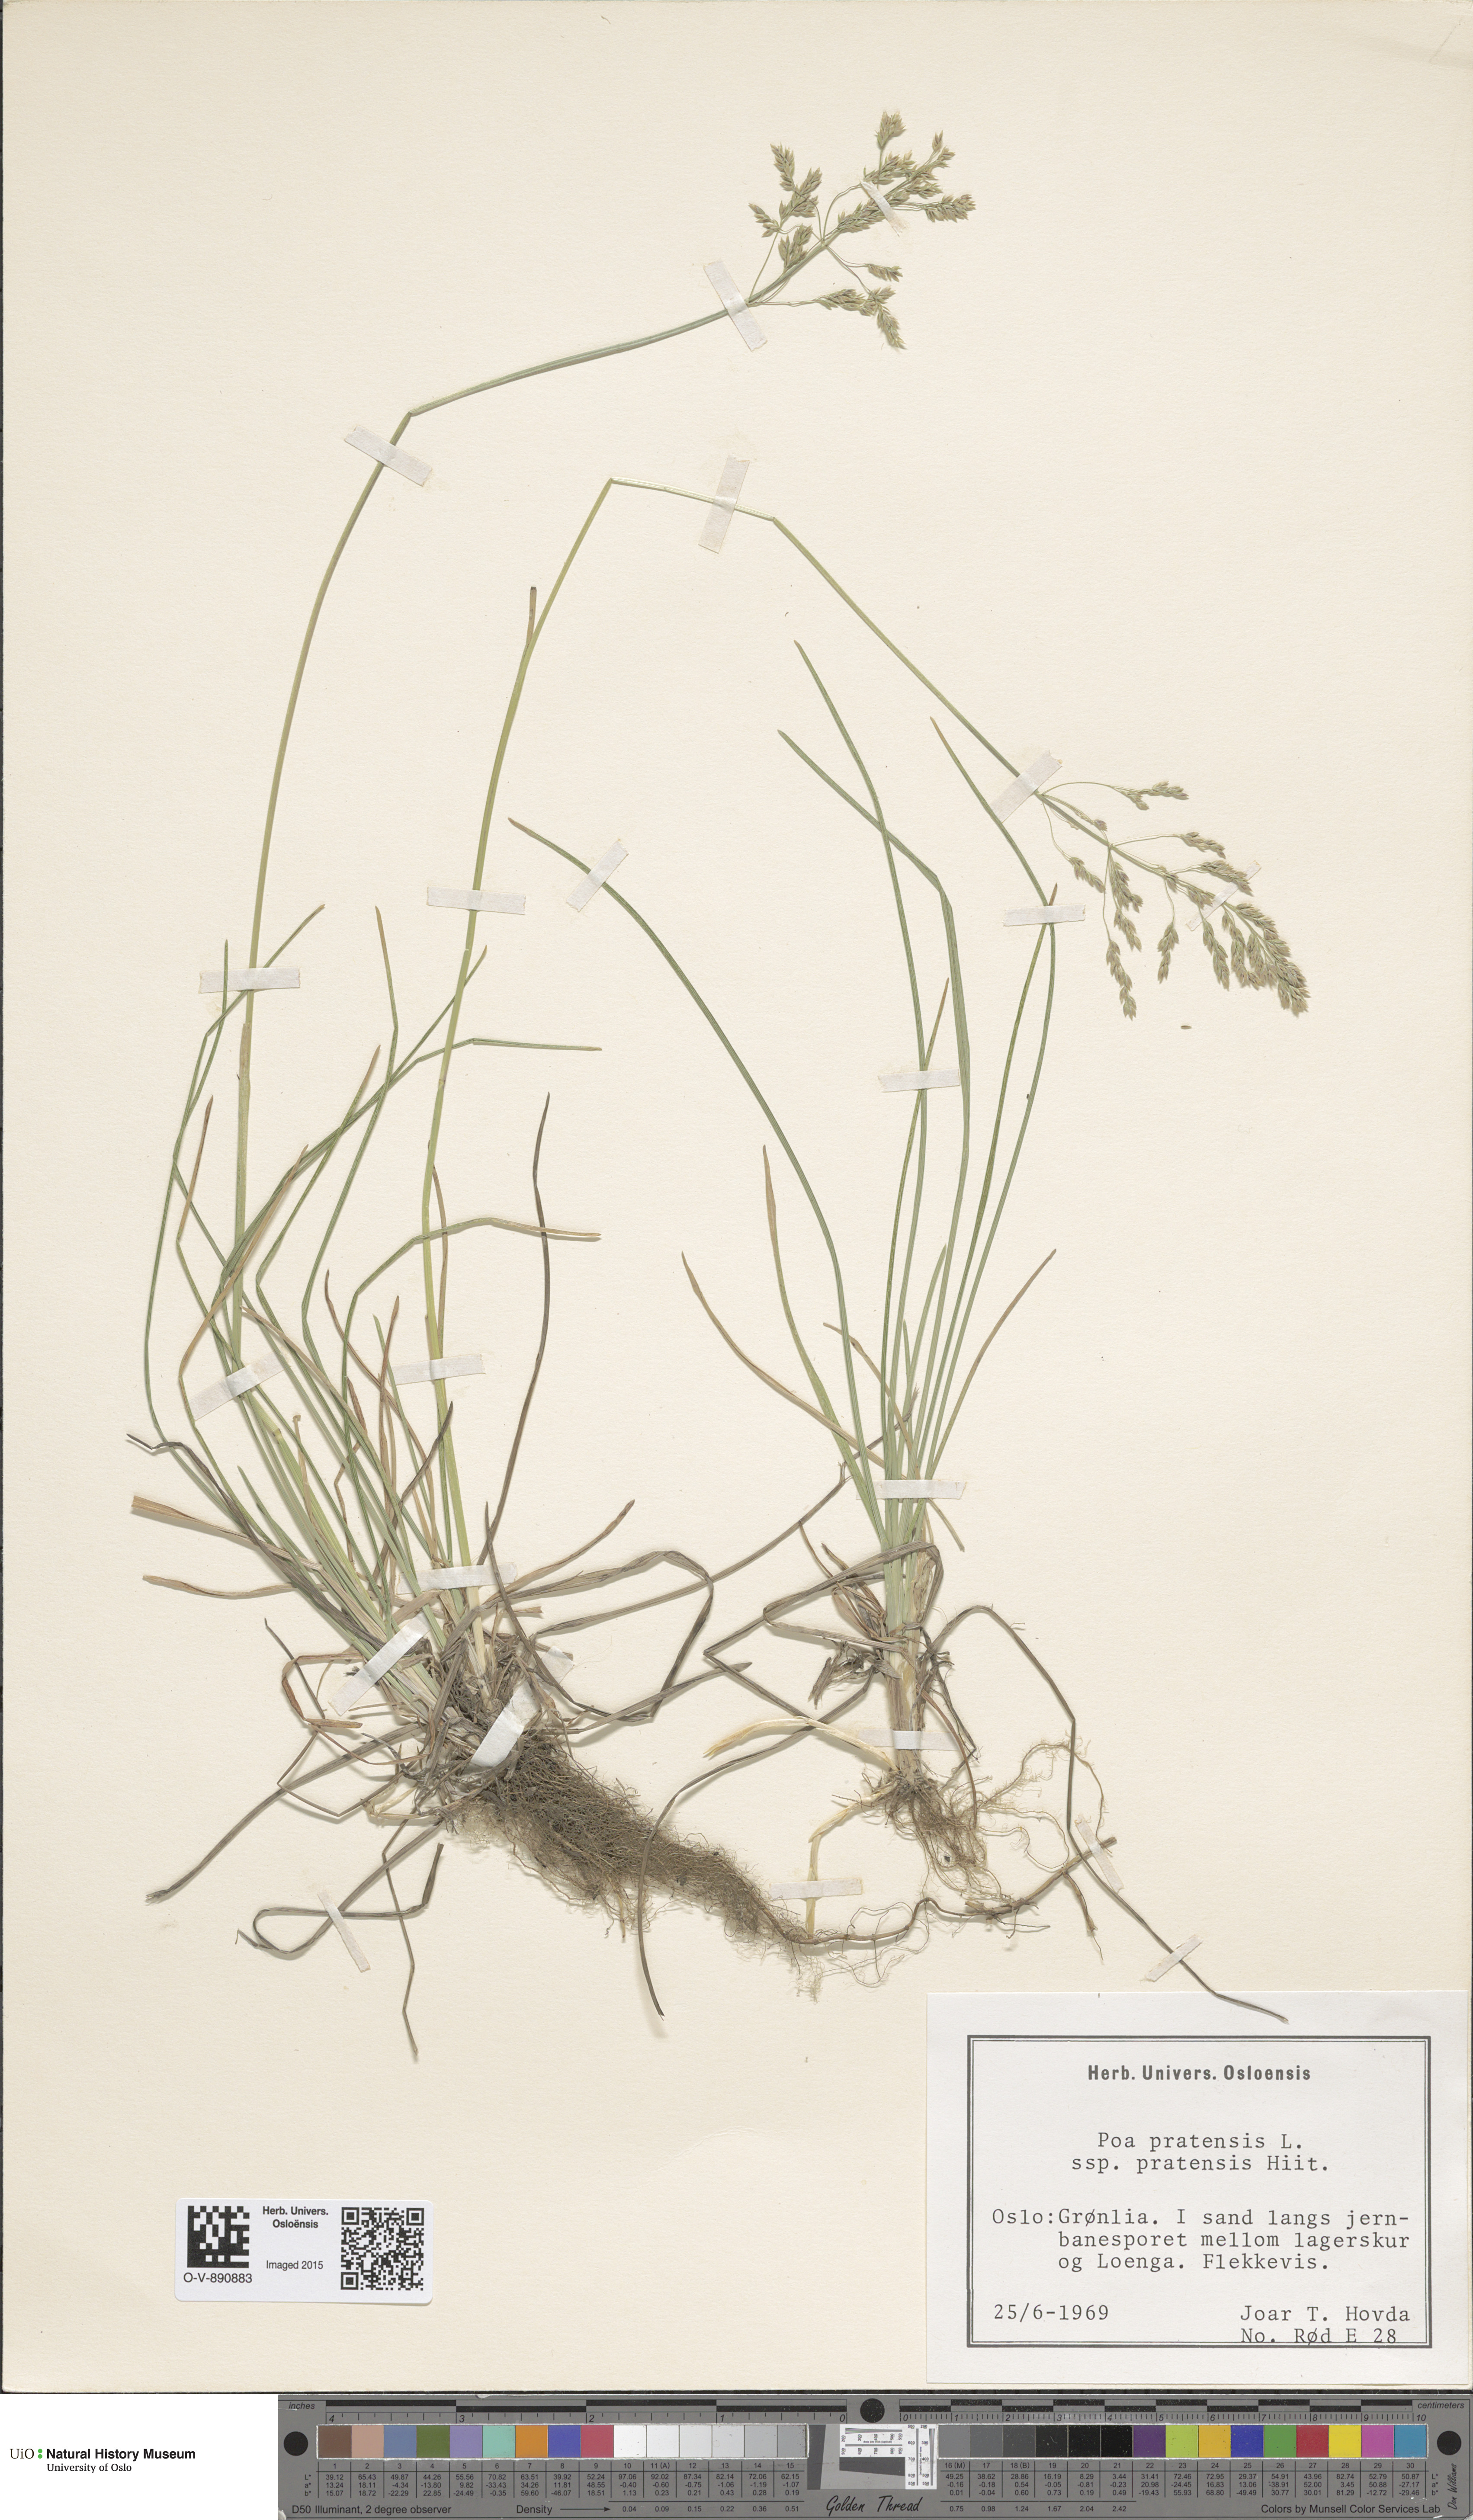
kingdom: Plantae
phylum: Tracheophyta
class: Liliopsida
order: Poales
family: Poaceae
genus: Poa
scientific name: Poa pratensis
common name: Kentucky bluegrass
